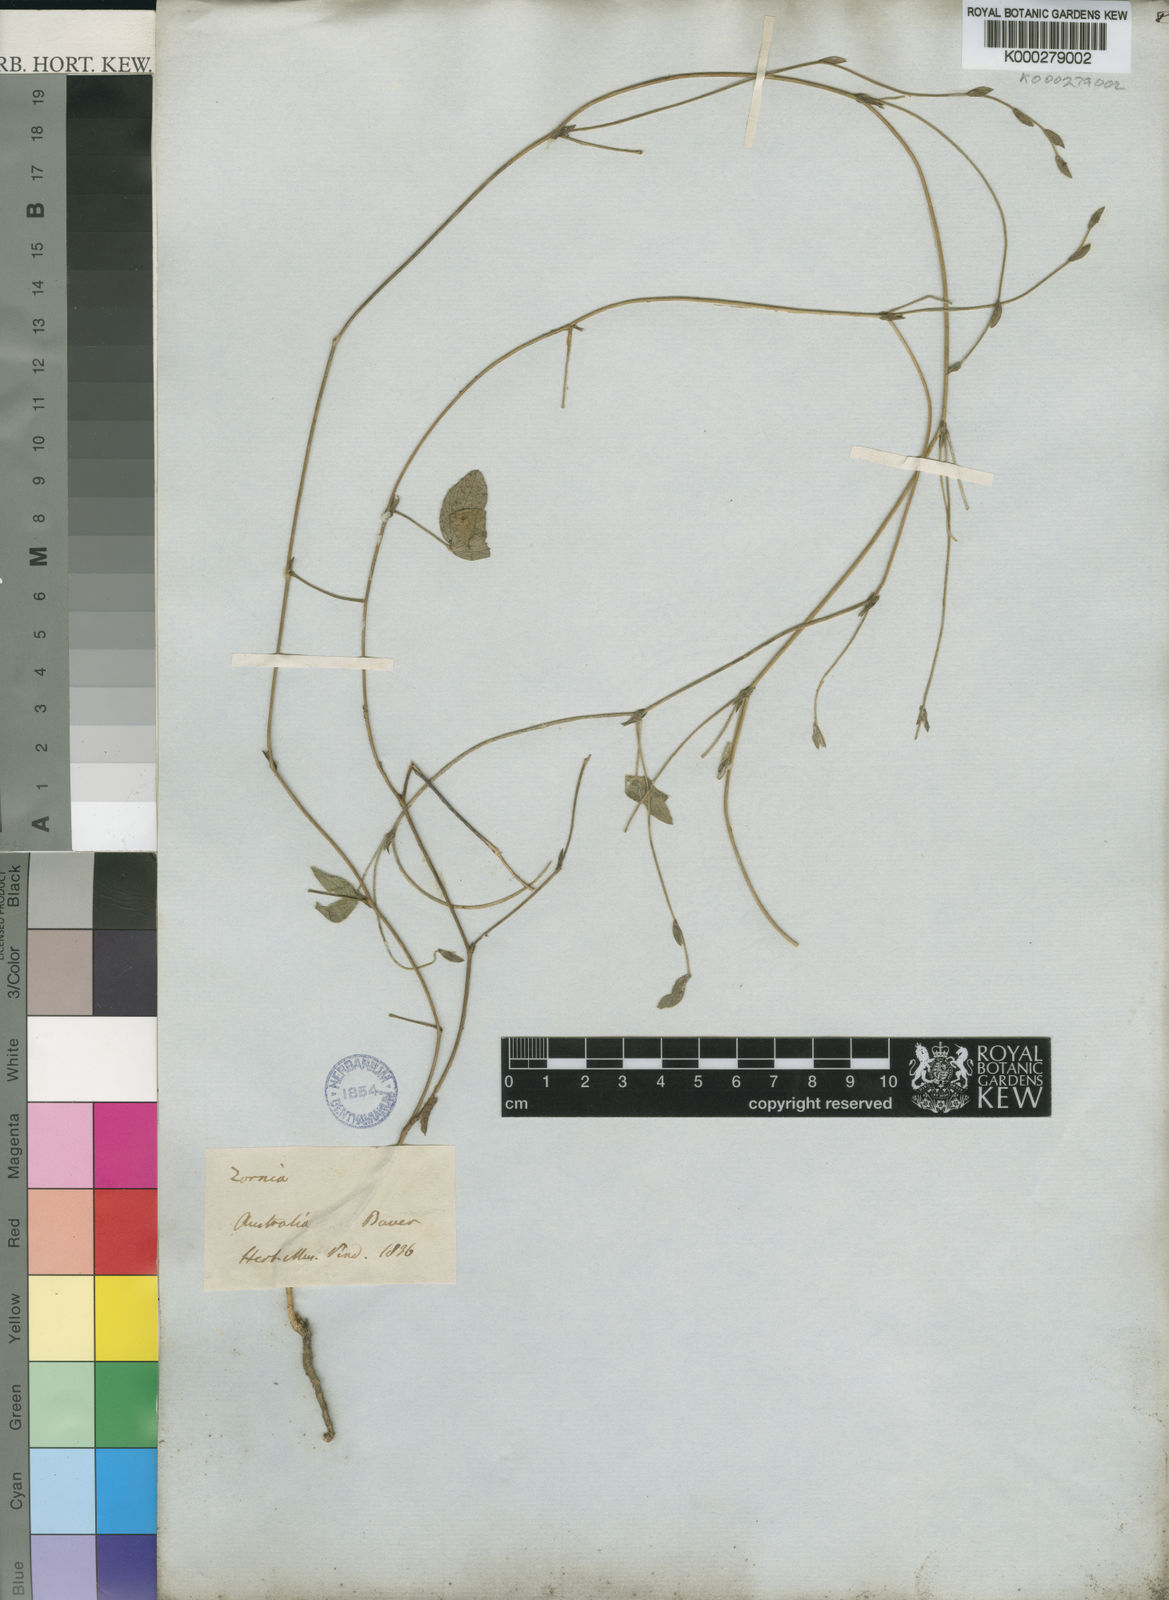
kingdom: Plantae
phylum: Tracheophyta
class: Magnoliopsida
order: Fabales
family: Fabaceae
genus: Zornia
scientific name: Zornia
